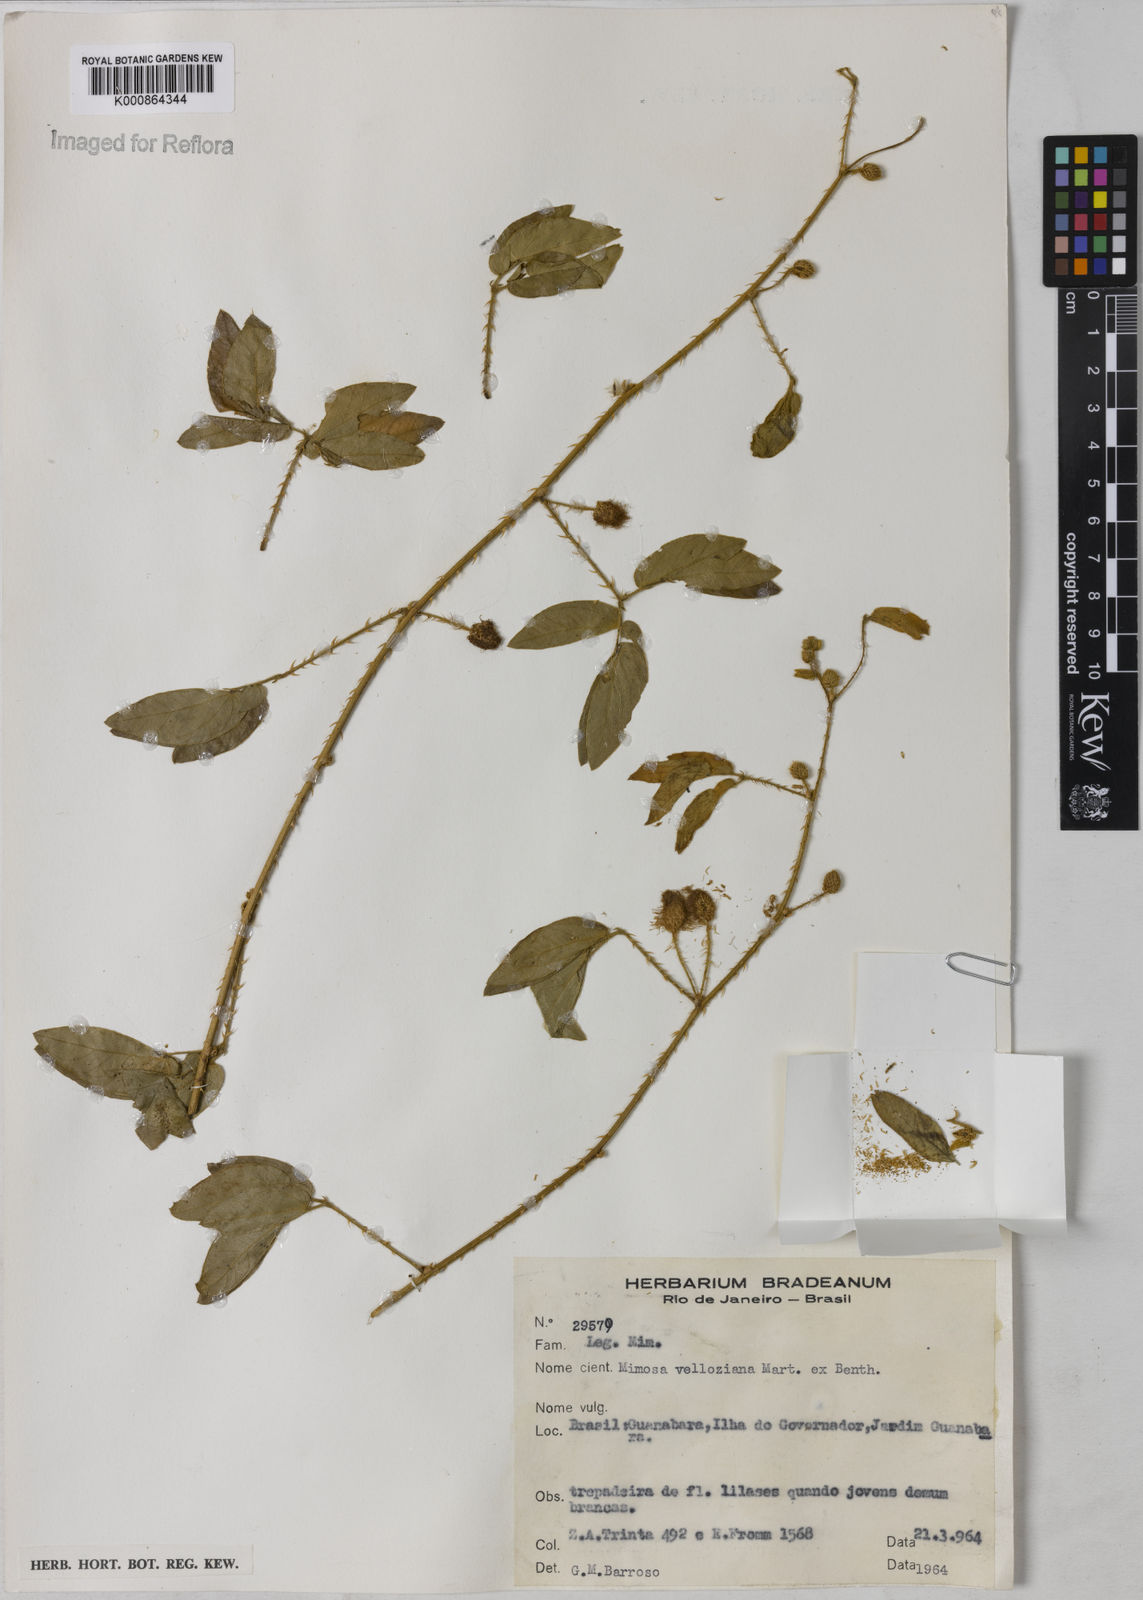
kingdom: Plantae
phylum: Tracheophyta
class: Magnoliopsida
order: Fabales
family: Fabaceae
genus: Mimosa
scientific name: Mimosa velloziana
